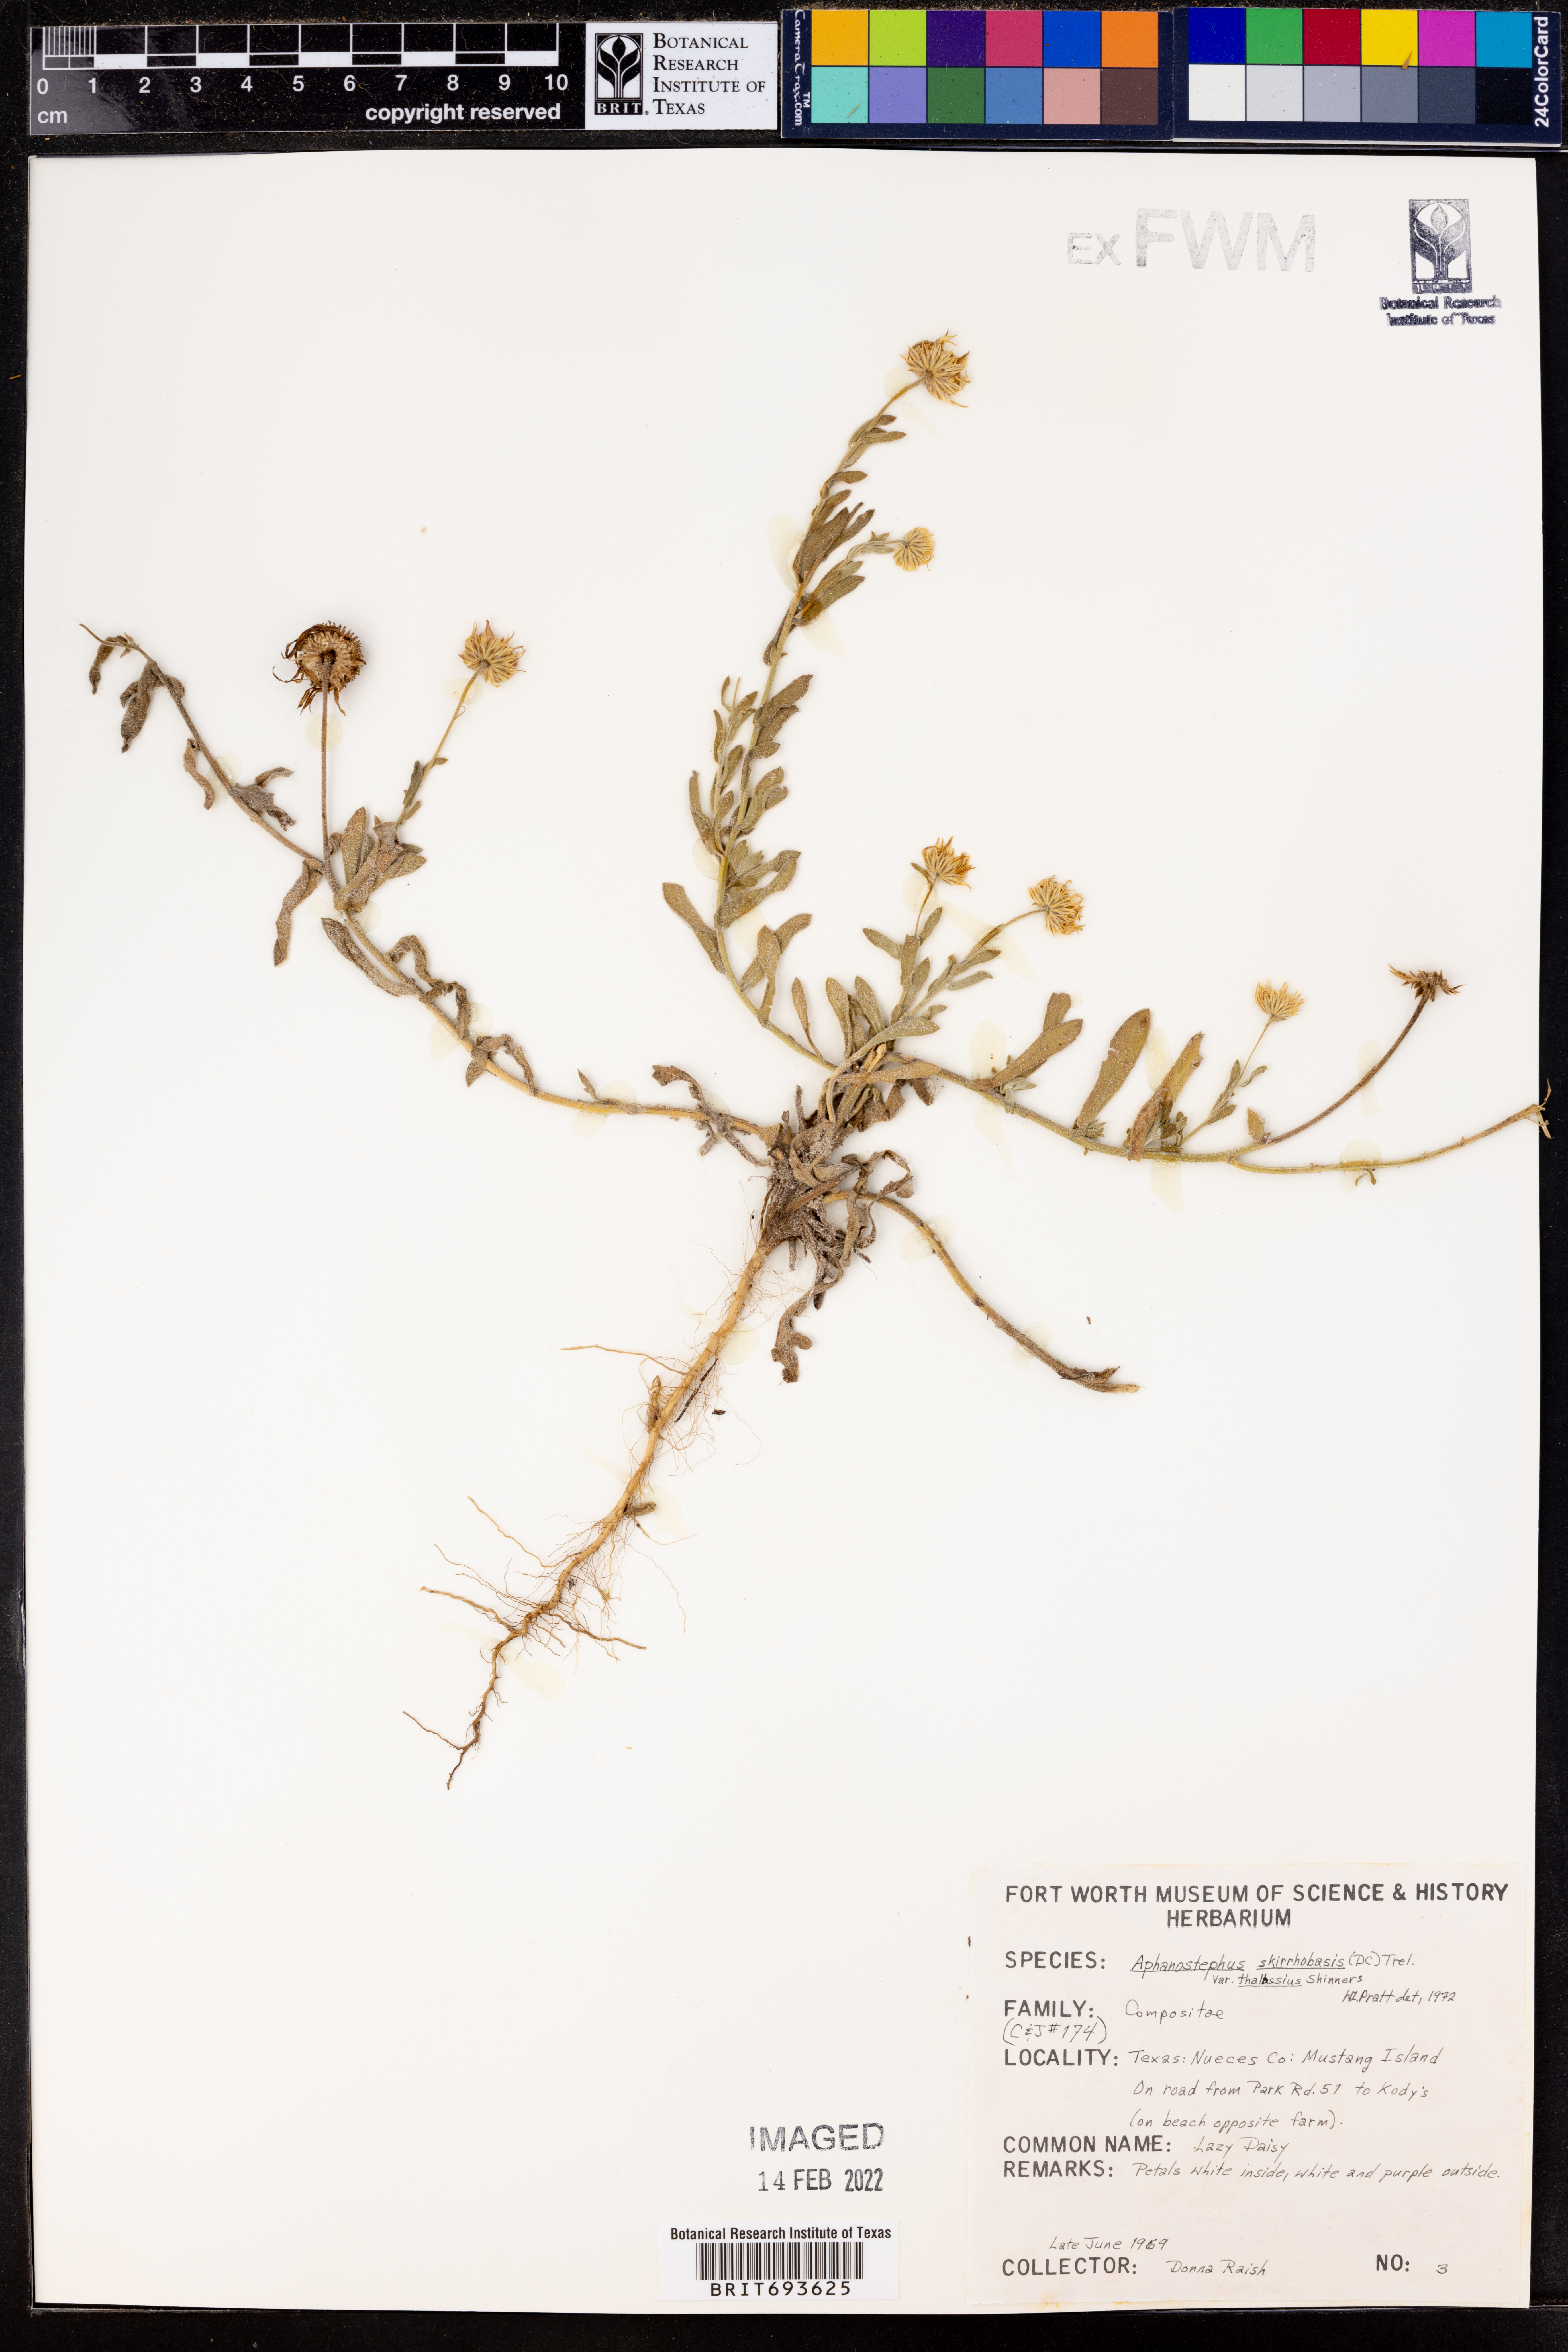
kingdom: Plantae
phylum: Tracheophyta
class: Magnoliopsida
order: Asterales
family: Asteraceae
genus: Aphanostephus
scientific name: Aphanostephus skirrhobasis
